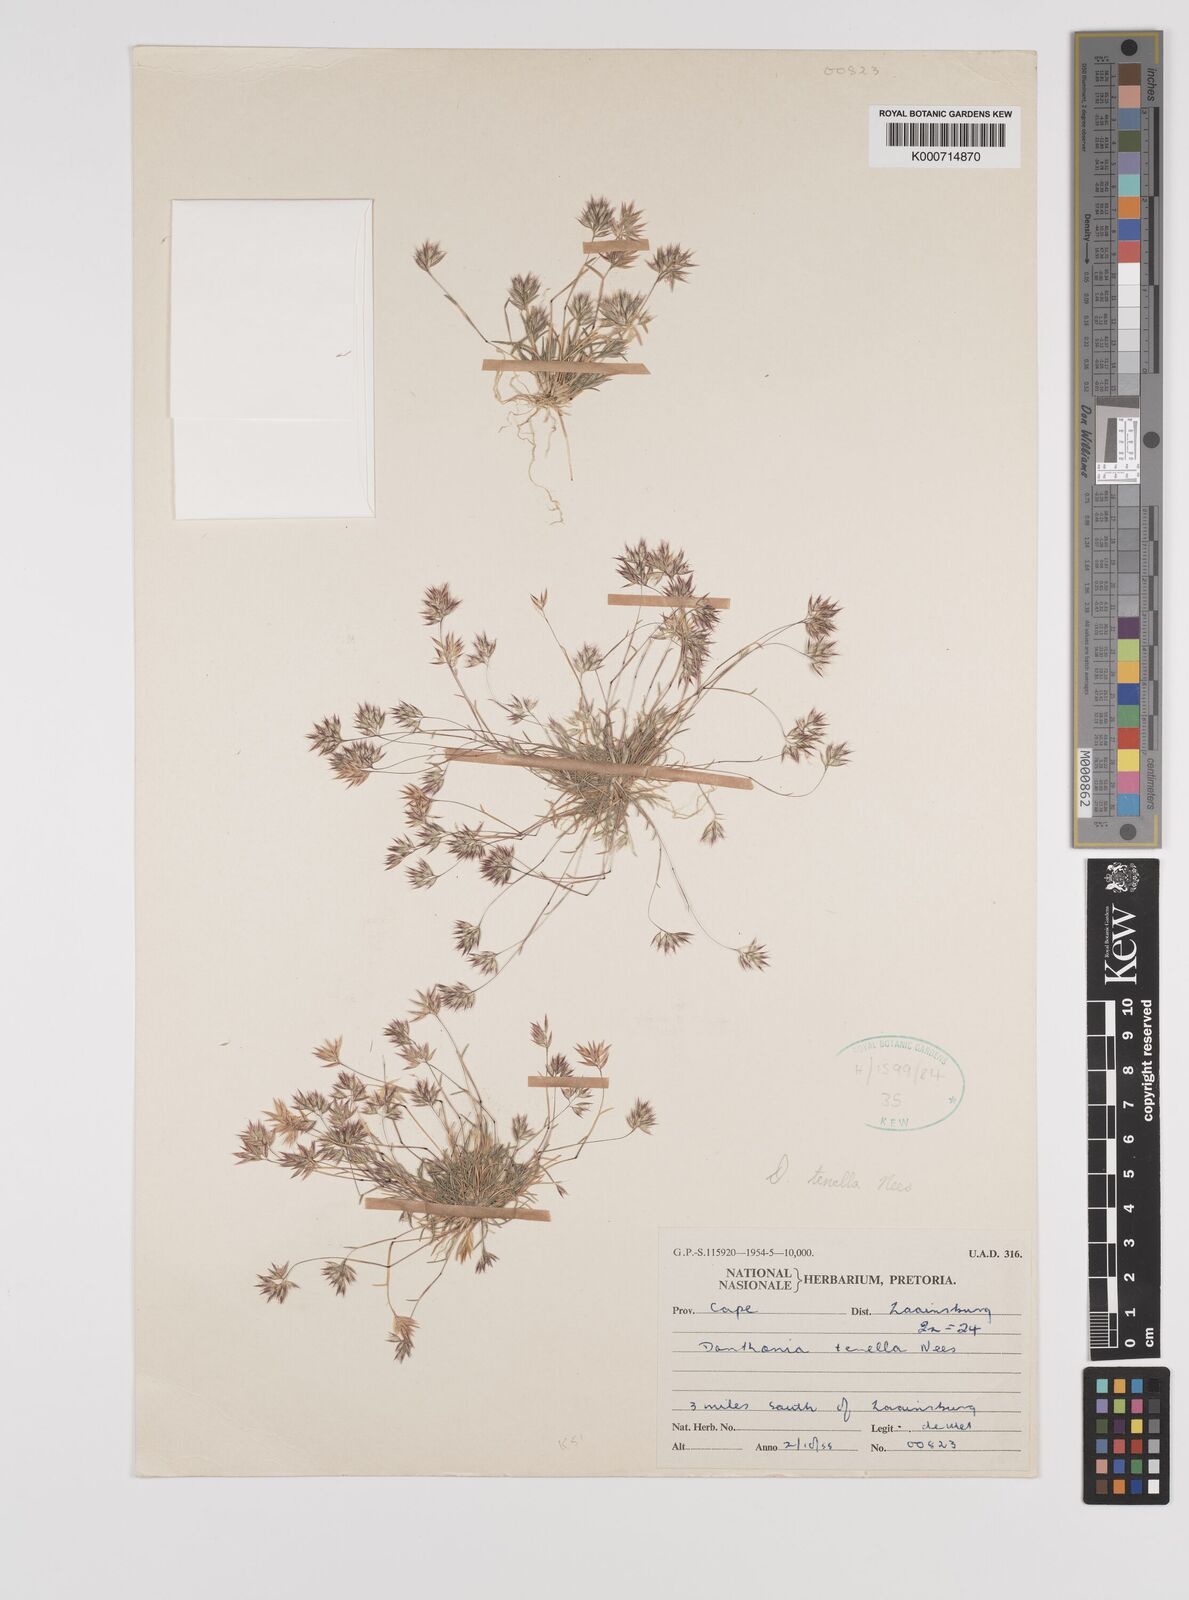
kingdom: Plantae
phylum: Tracheophyta
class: Liliopsida
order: Poales
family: Poaceae
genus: Rytidosperma
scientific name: Rytidosperma
